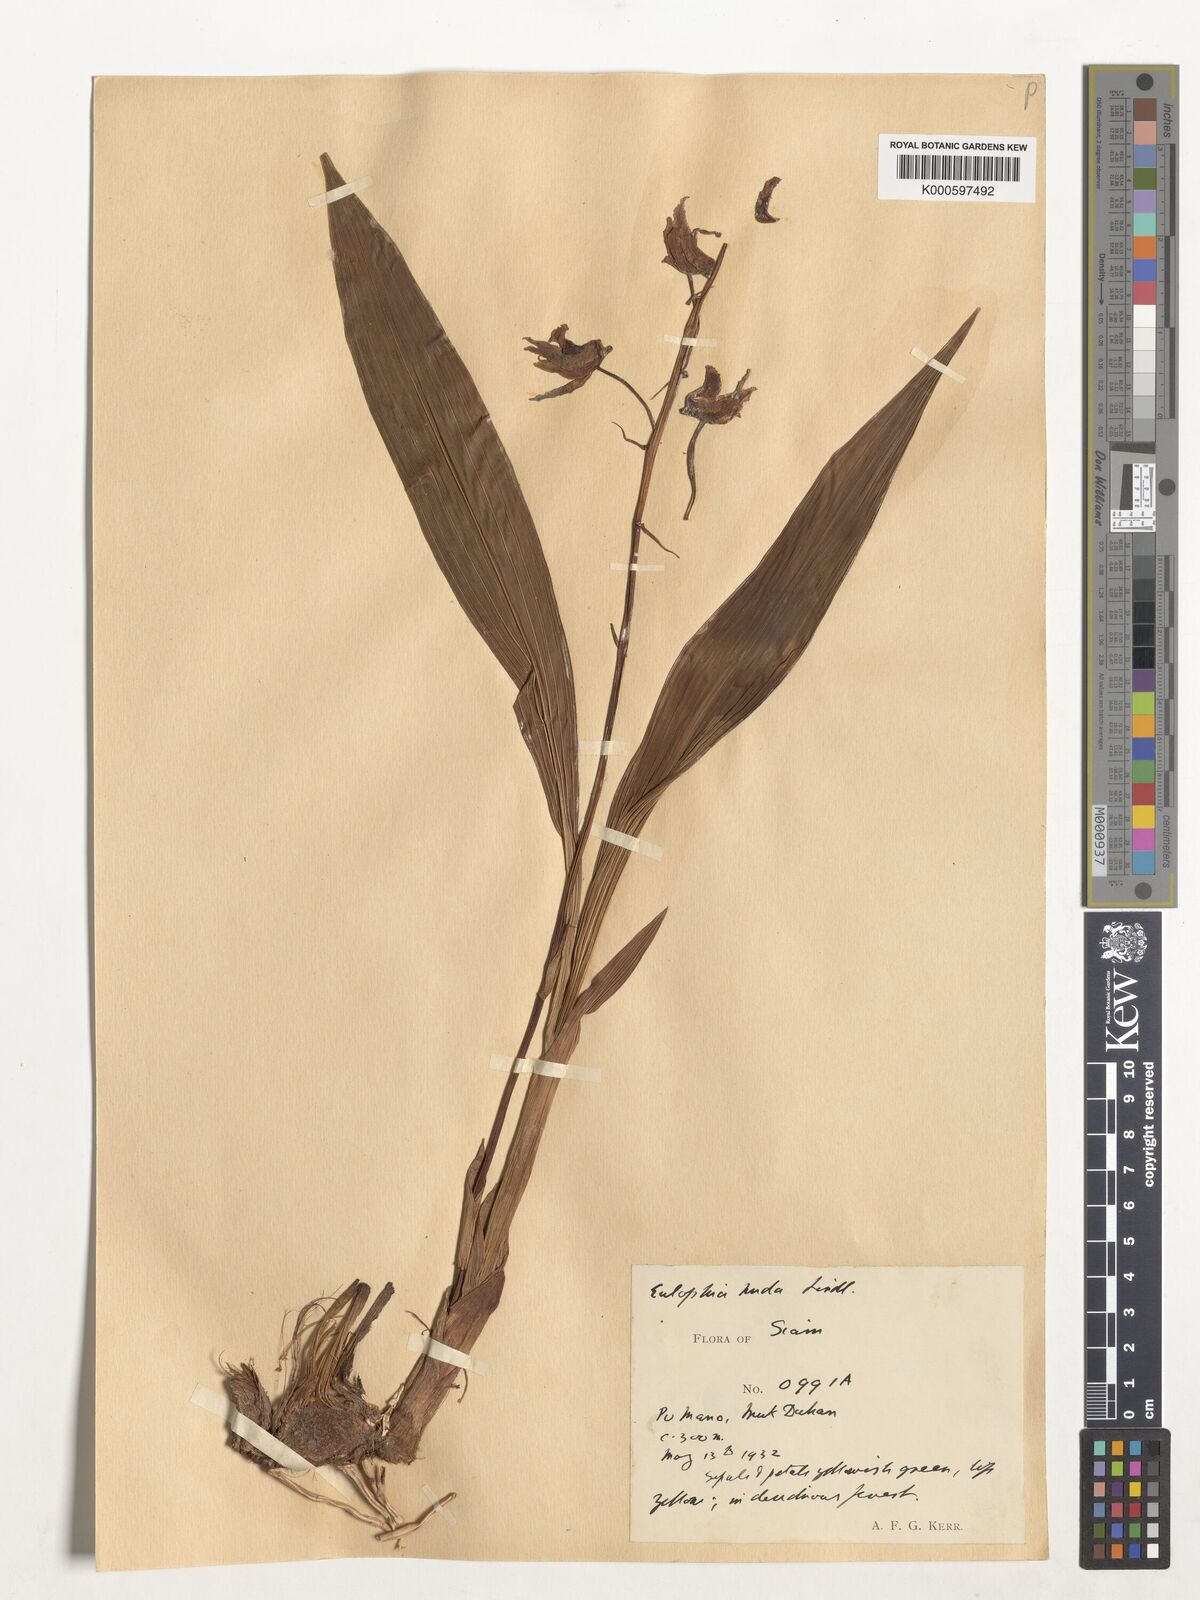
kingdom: Plantae
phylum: Tracheophyta
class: Liliopsida
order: Asparagales
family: Orchidaceae
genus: Eulophia
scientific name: Eulophia nuda
